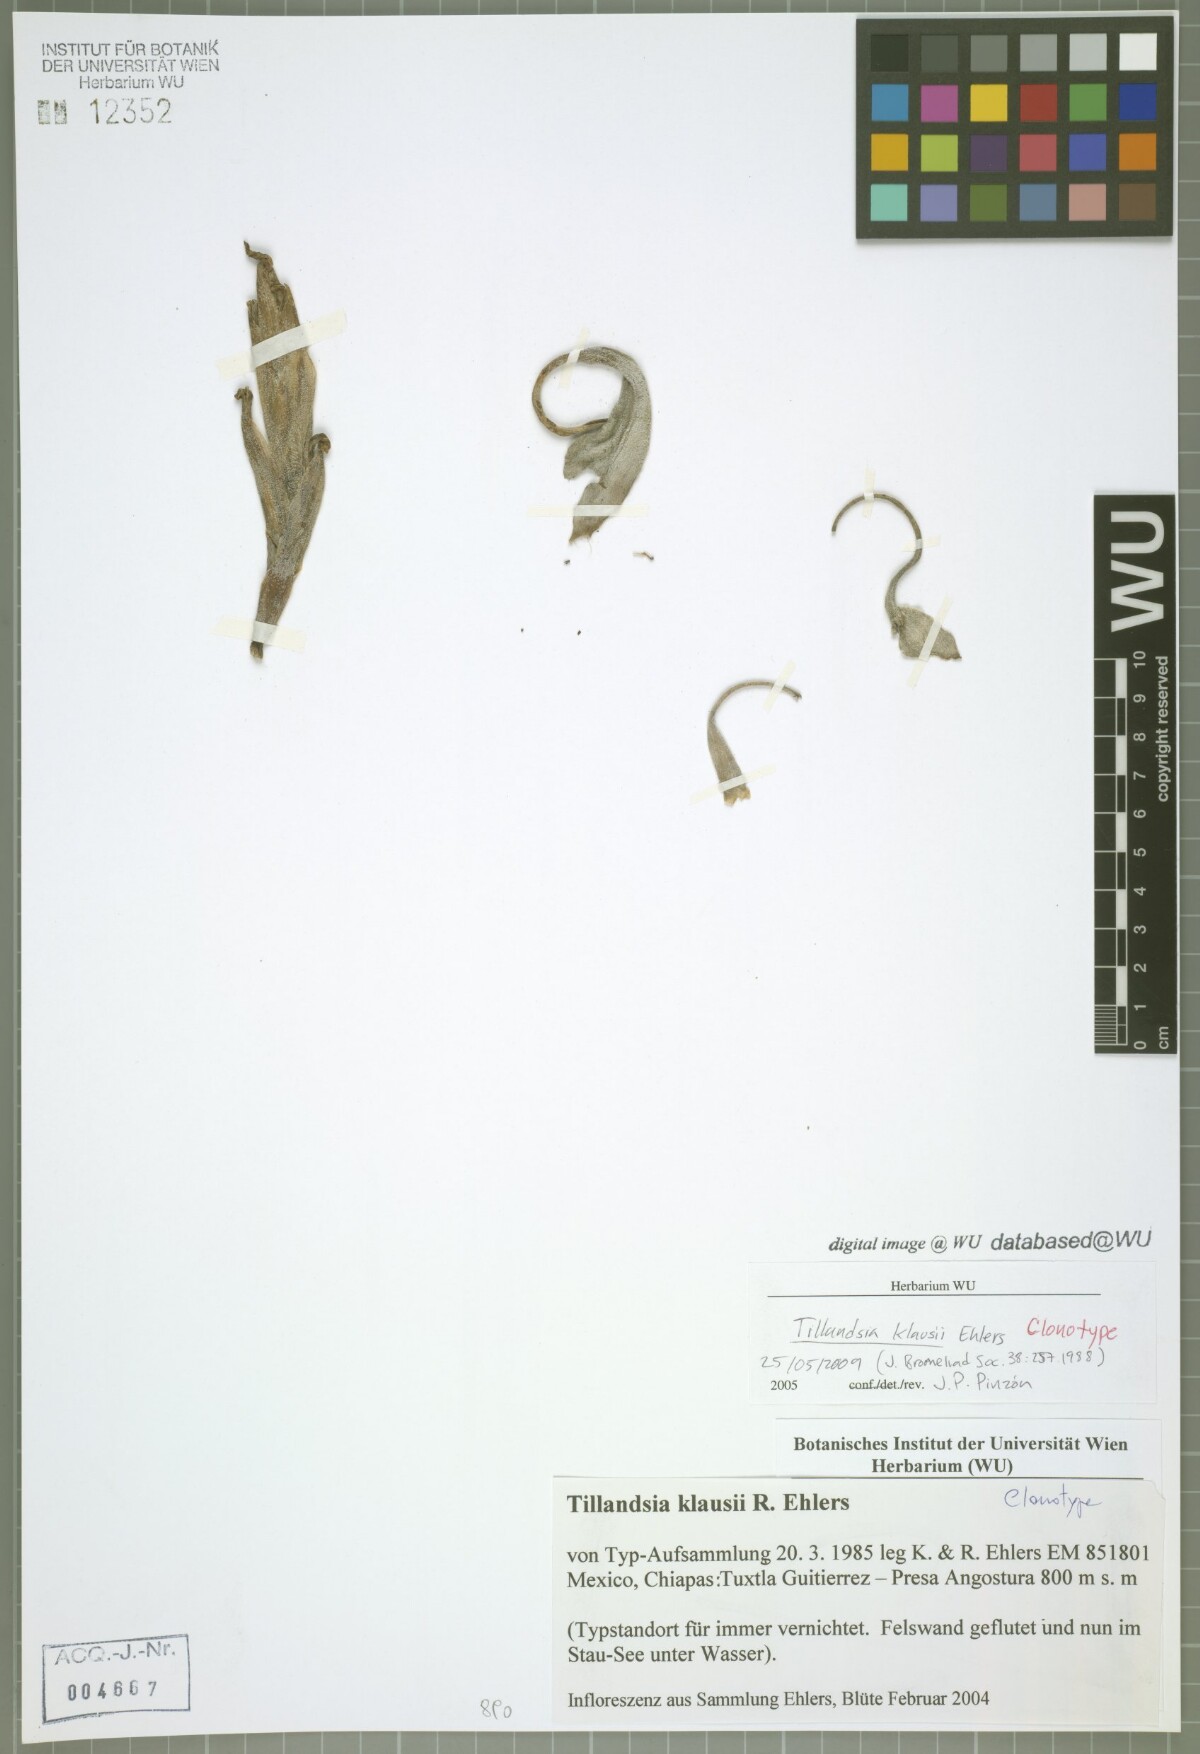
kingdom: Plantae
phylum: Tracheophyta
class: Liliopsida
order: Poales
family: Bromeliaceae
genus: Tillandsia
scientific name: Tillandsia klausii
